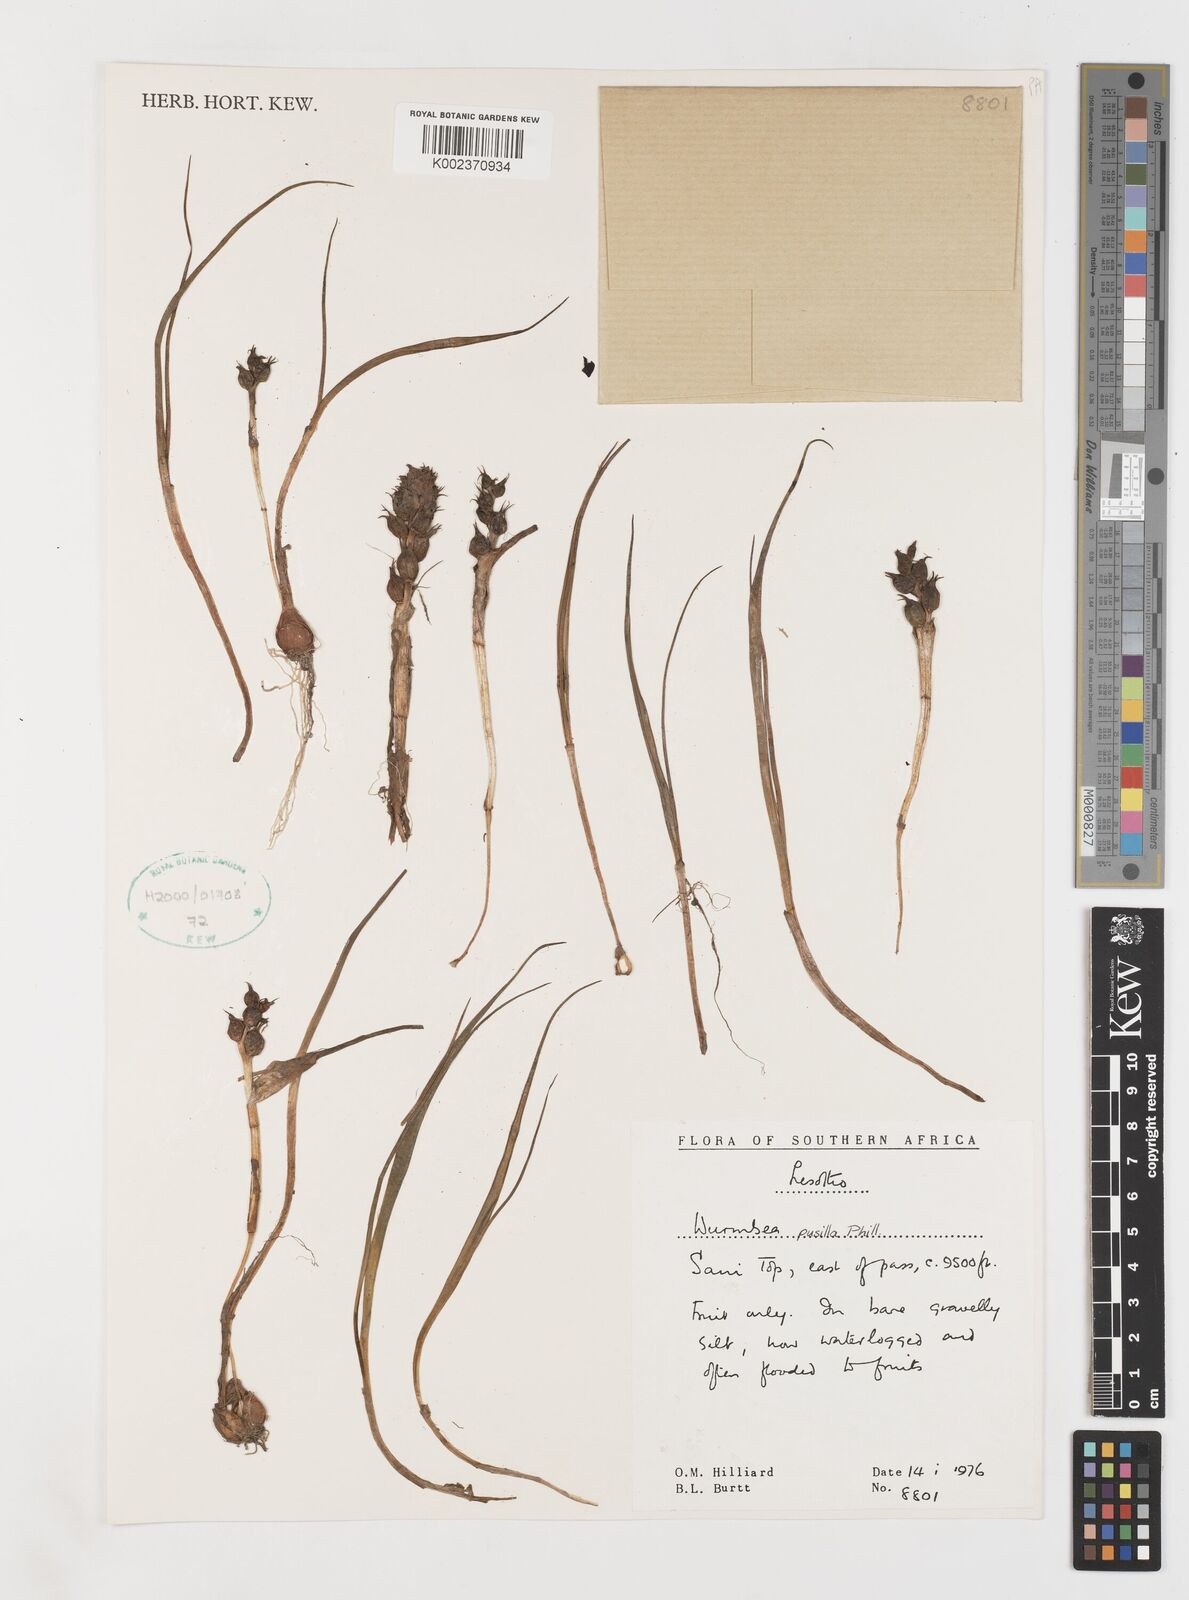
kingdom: Plantae
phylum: Tracheophyta
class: Liliopsida
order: Liliales
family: Colchicaceae
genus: Wurmbea
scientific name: Wurmbea pusilla
